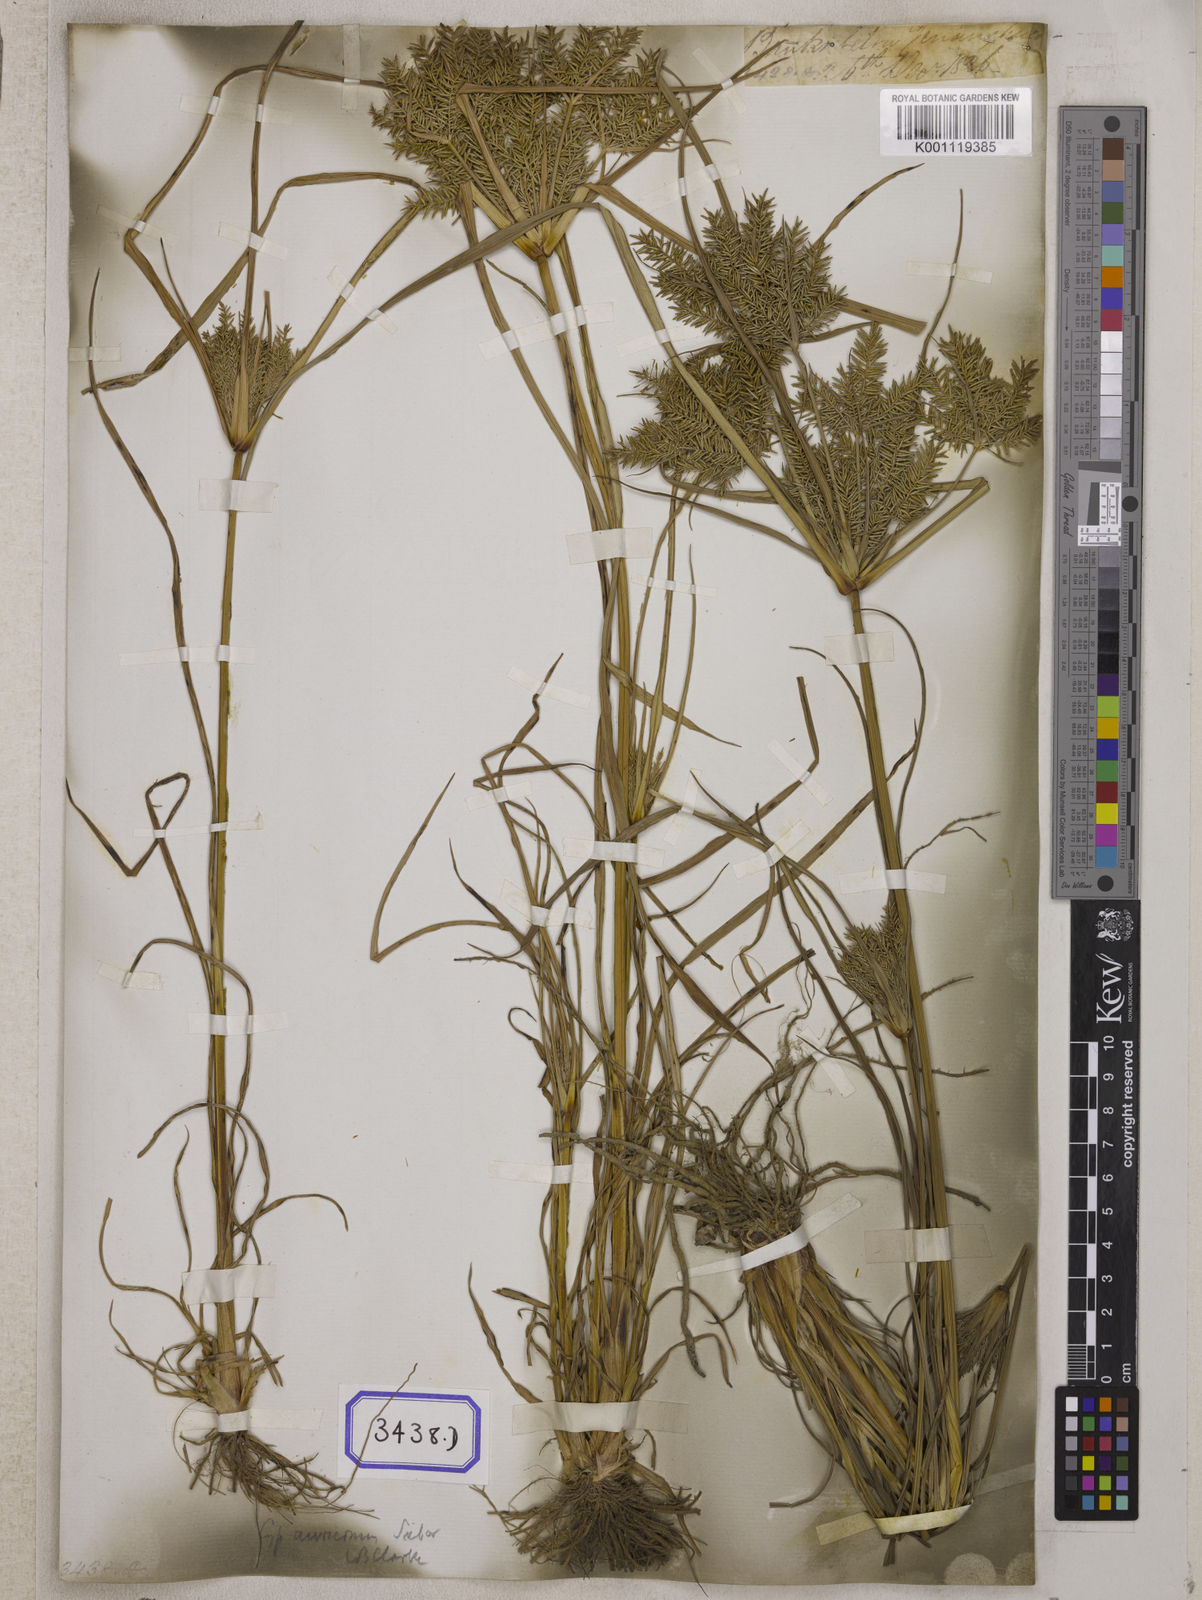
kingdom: Plantae
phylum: Tracheophyta
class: Liliopsida
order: Poales
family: Cyperaceae
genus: Mariscus
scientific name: Mariscus
